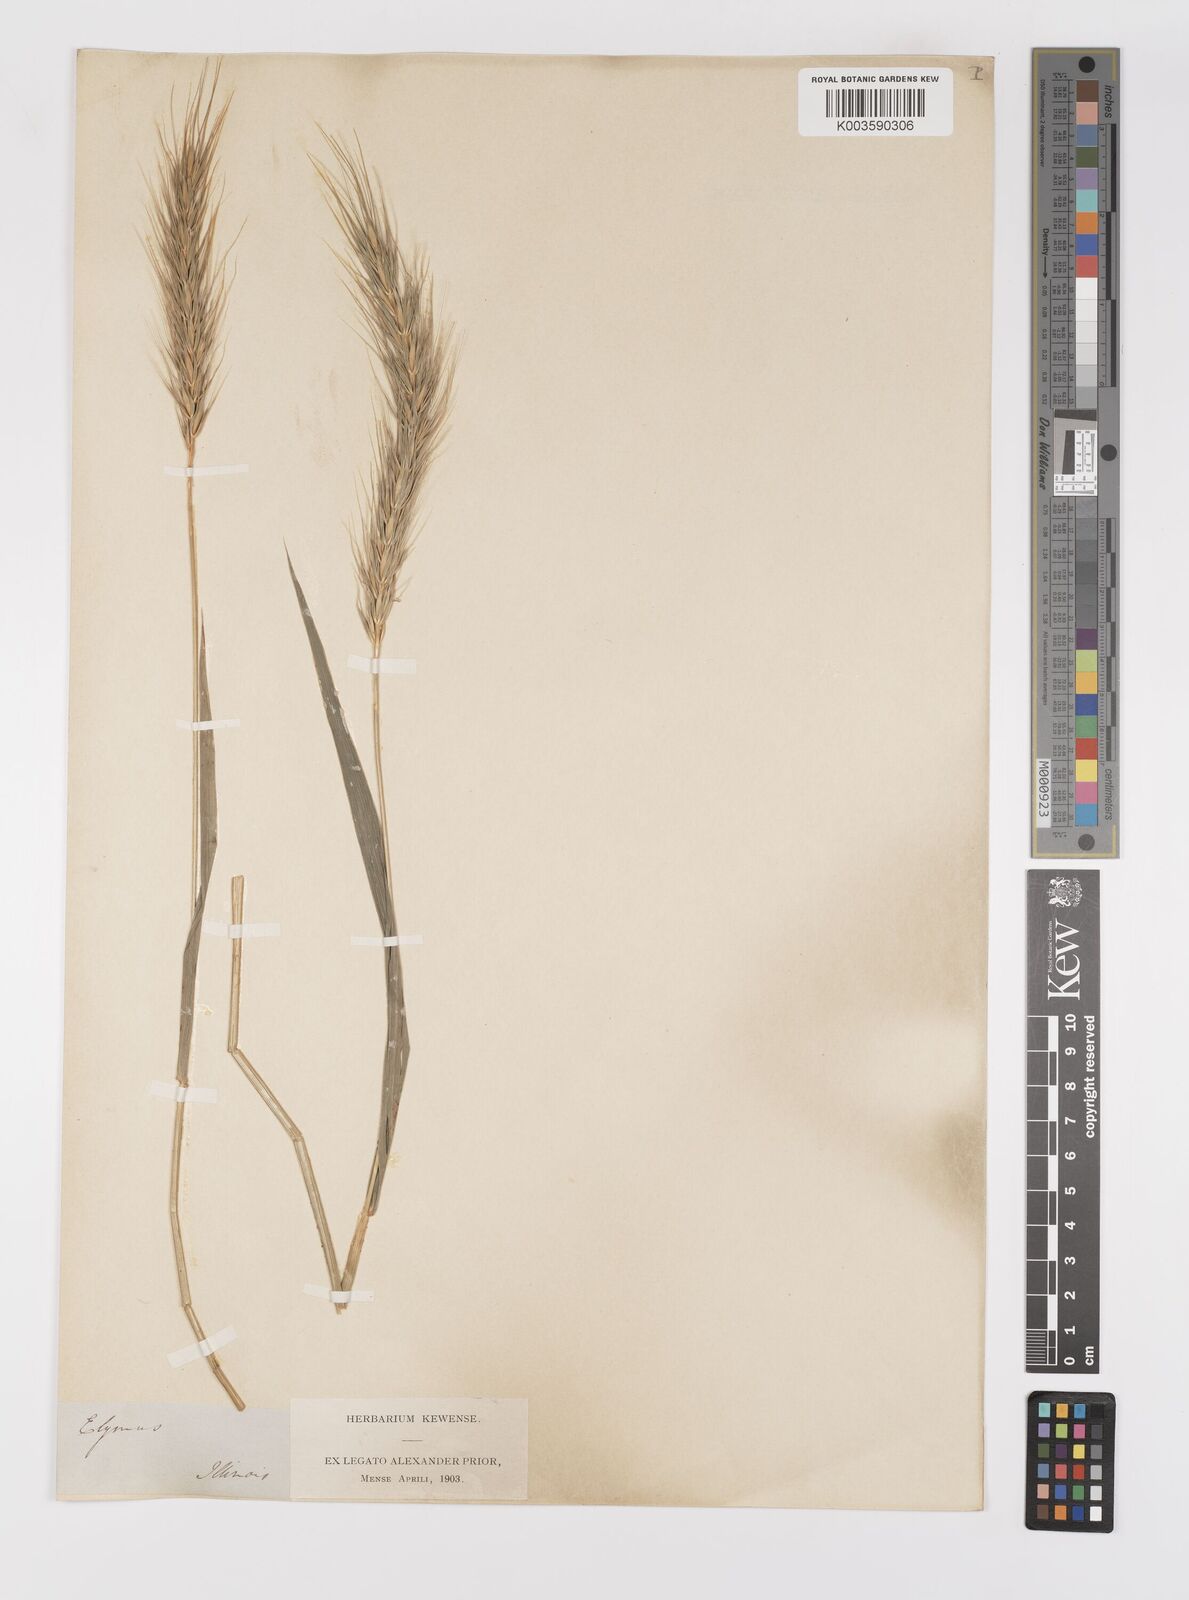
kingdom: Plantae
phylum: Tracheophyta
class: Liliopsida
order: Poales
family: Poaceae
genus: Elymus
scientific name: Elymus
